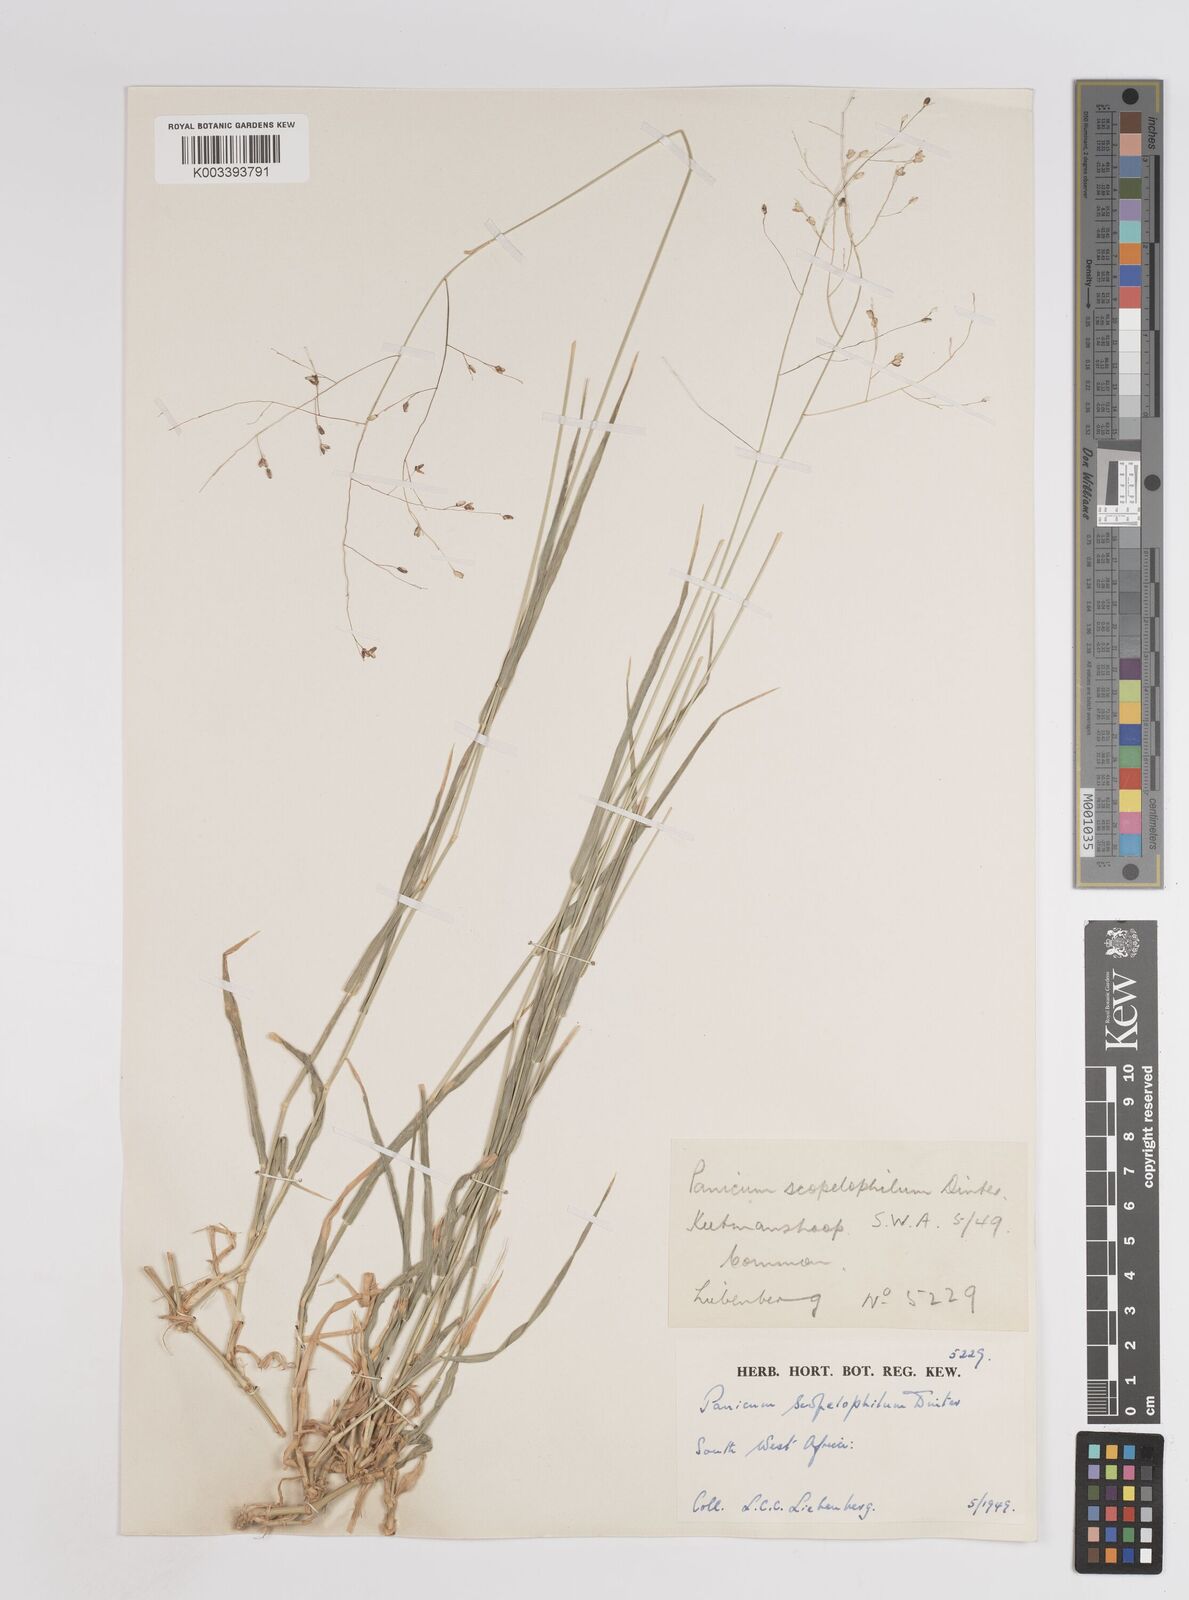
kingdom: Plantae
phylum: Tracheophyta
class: Liliopsida
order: Poales
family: Poaceae
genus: Panicum
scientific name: Panicum
